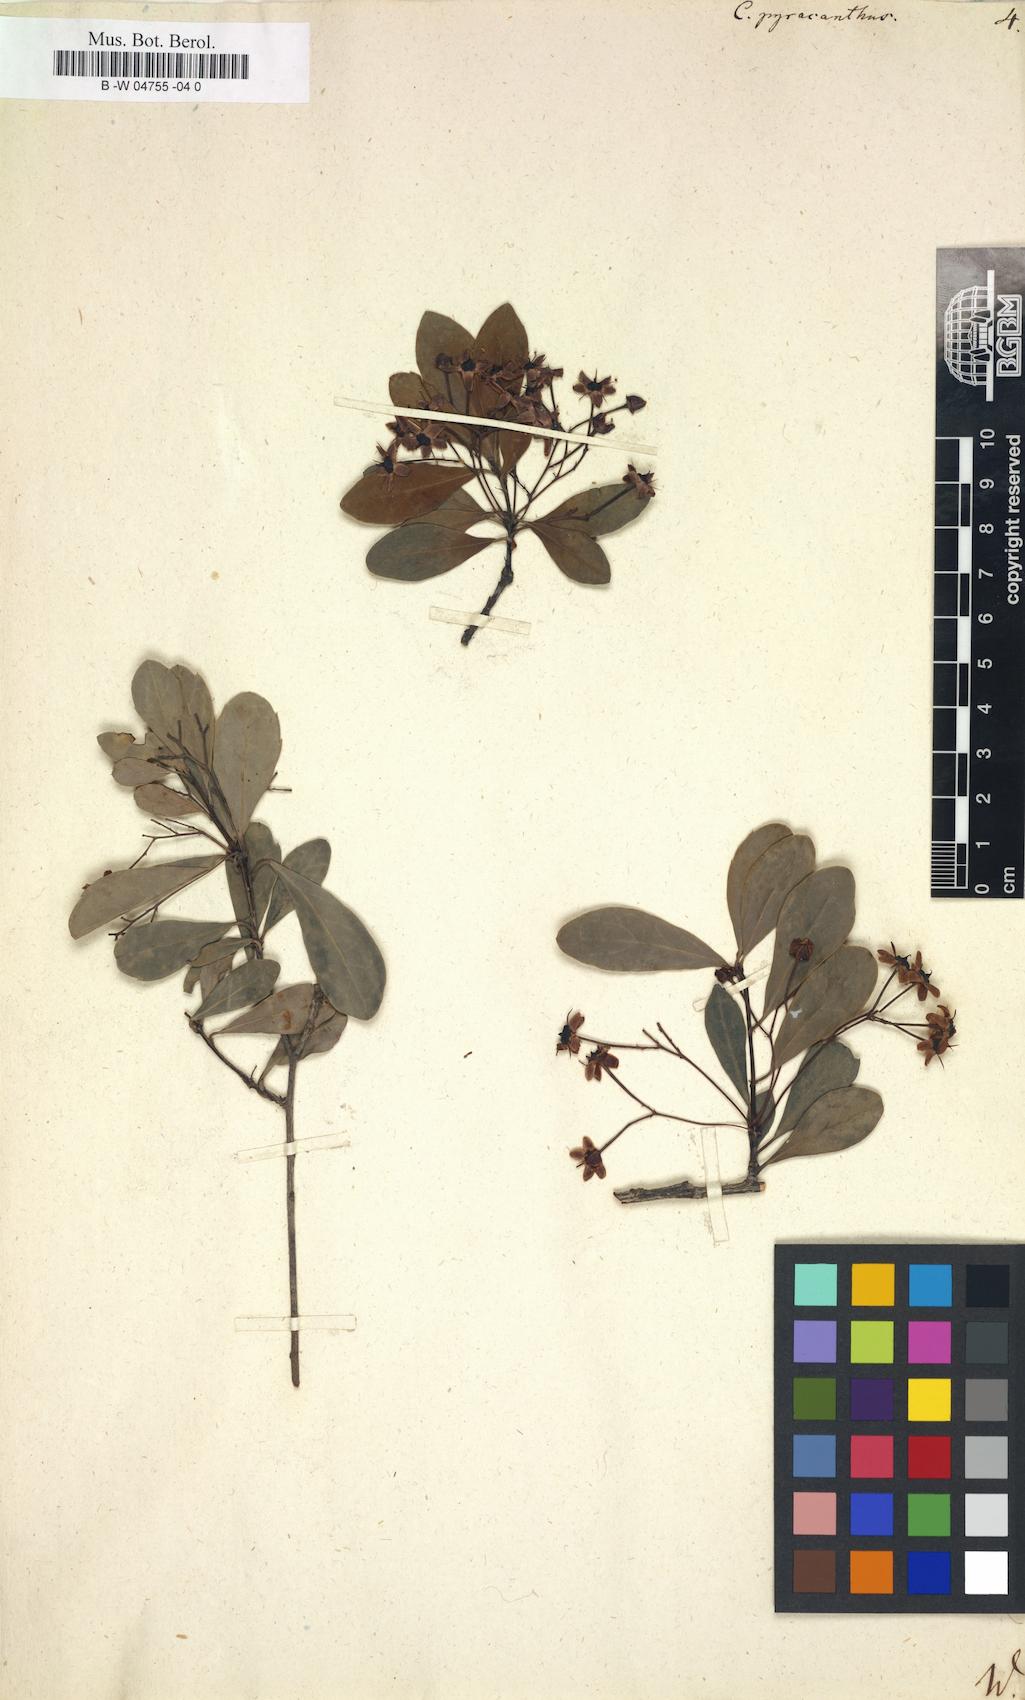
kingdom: Plantae
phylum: Tracheophyta
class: Magnoliopsida
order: Celastrales
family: Celastraceae
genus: Putterlickia
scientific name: Putterlickia pyracantha
